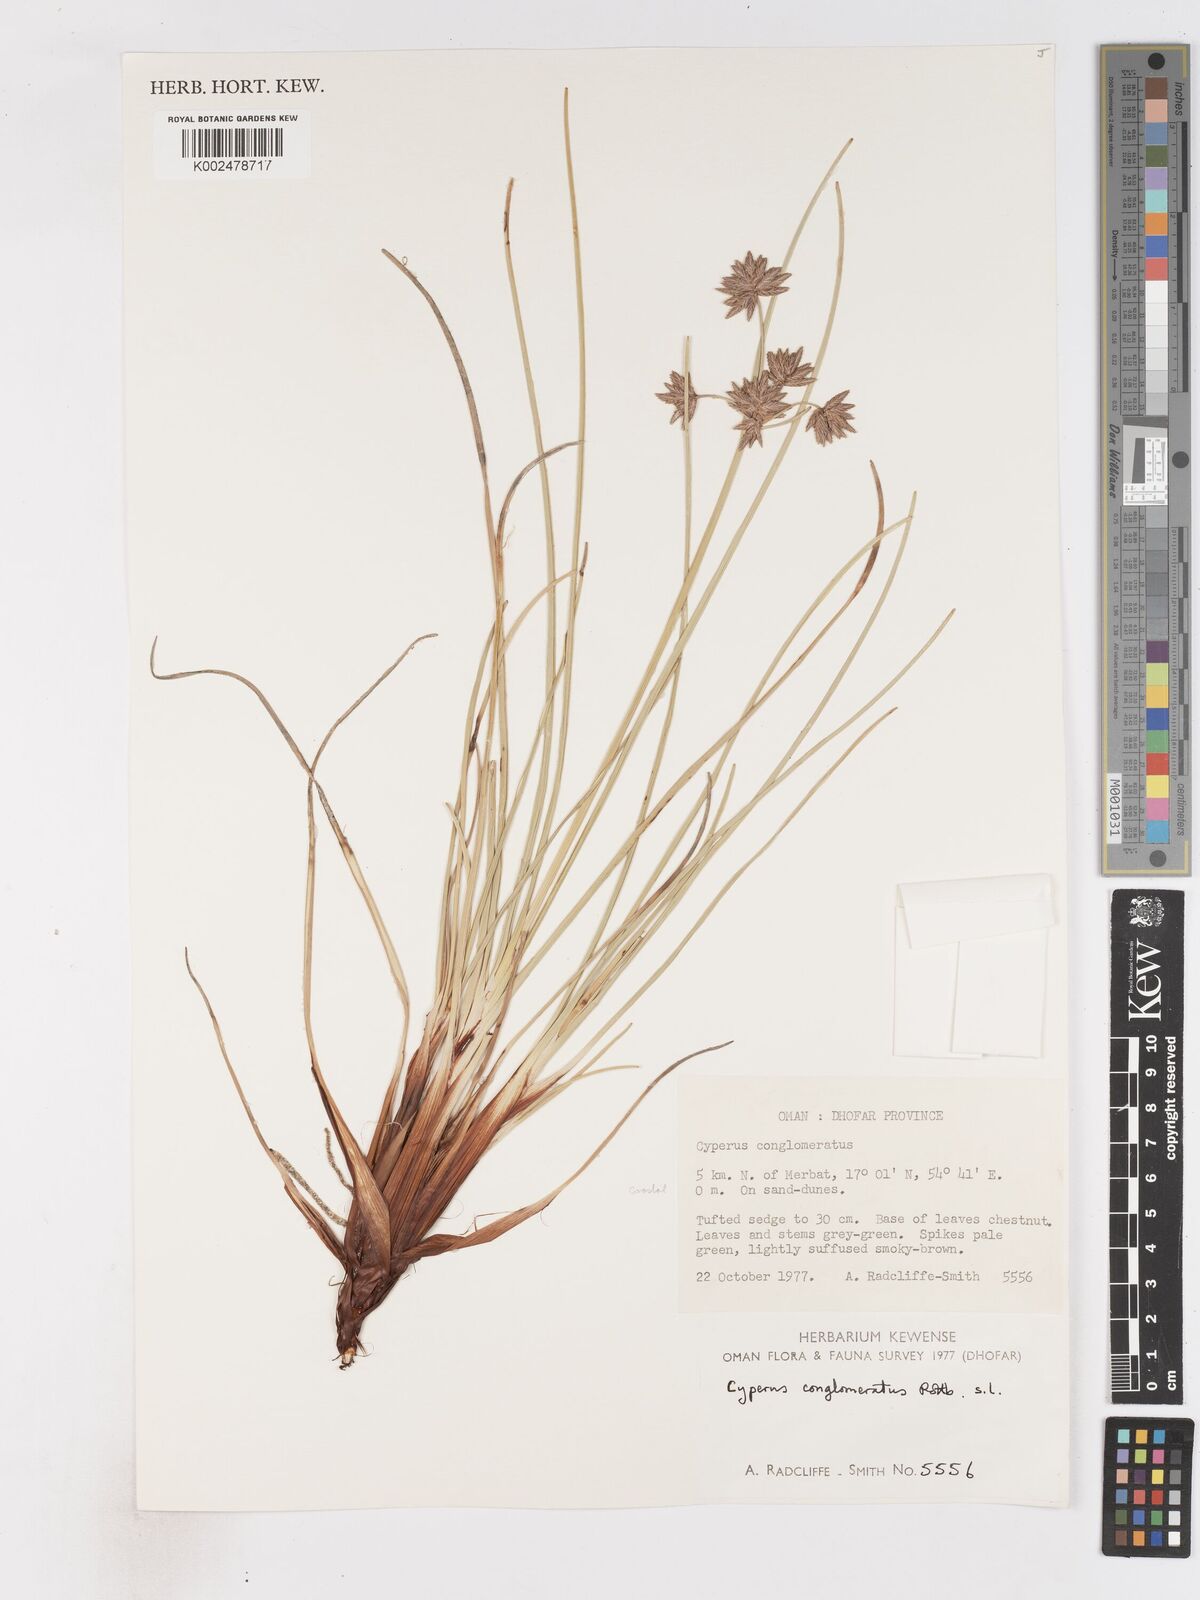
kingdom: Plantae
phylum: Tracheophyta
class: Liliopsida
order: Poales
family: Cyperaceae
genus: Cyperus
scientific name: Cyperus conglomeratus
